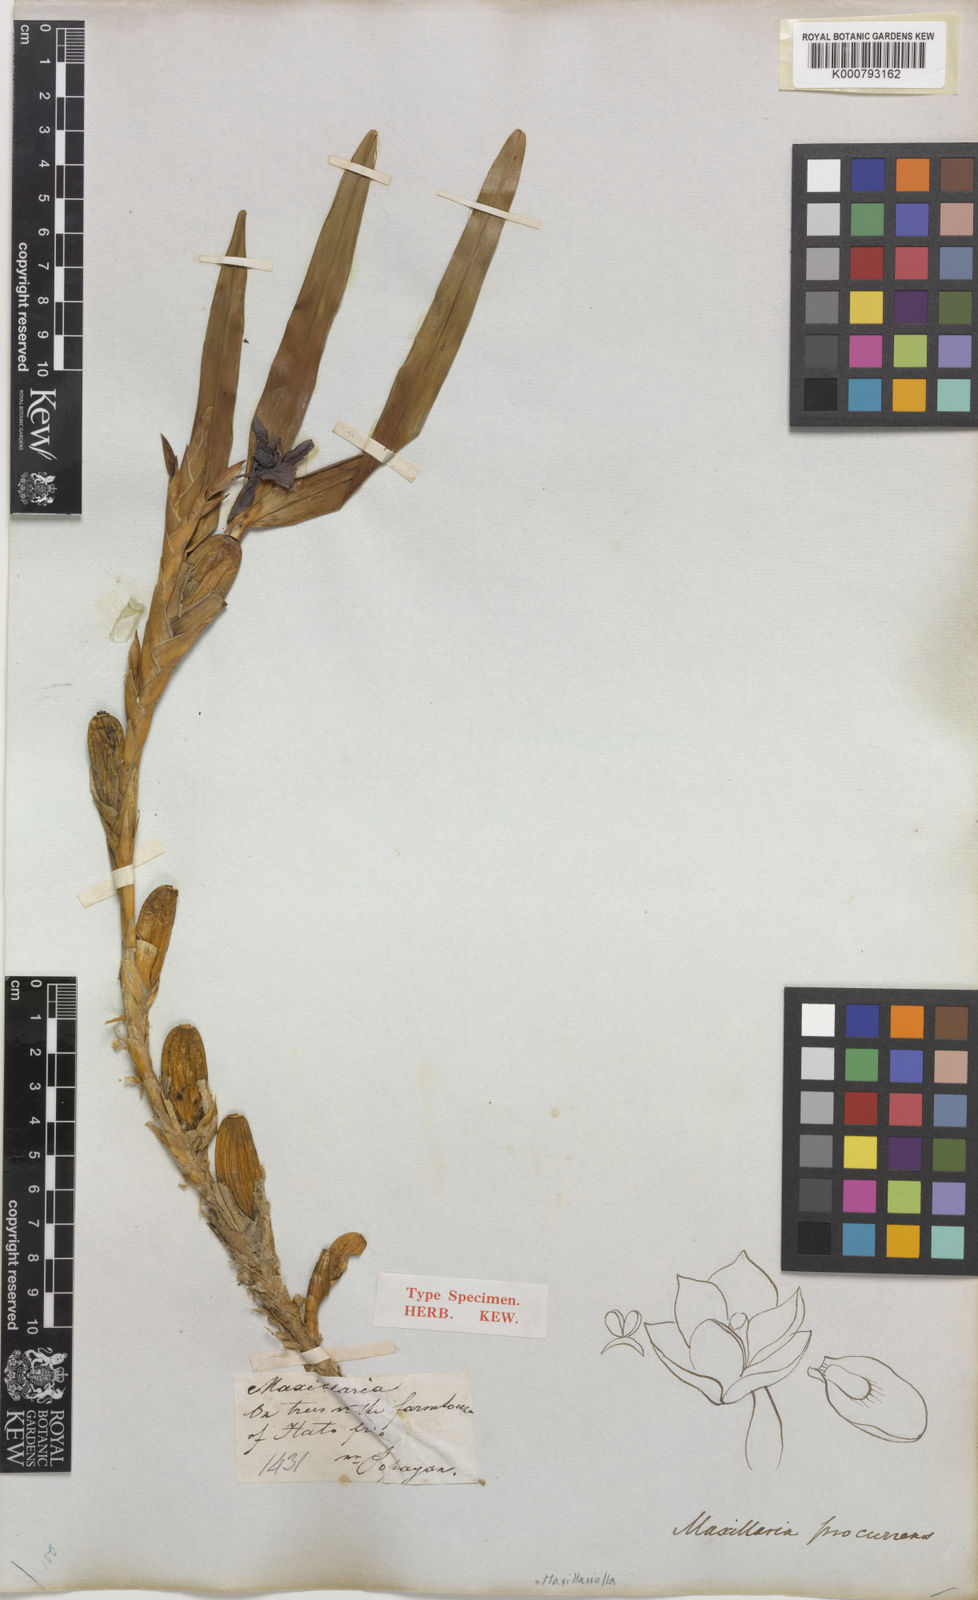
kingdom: Plantae
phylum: Tracheophyta
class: Liliopsida
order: Asparagales
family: Orchidaceae
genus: Maxillaria
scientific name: Maxillaria procurrens
